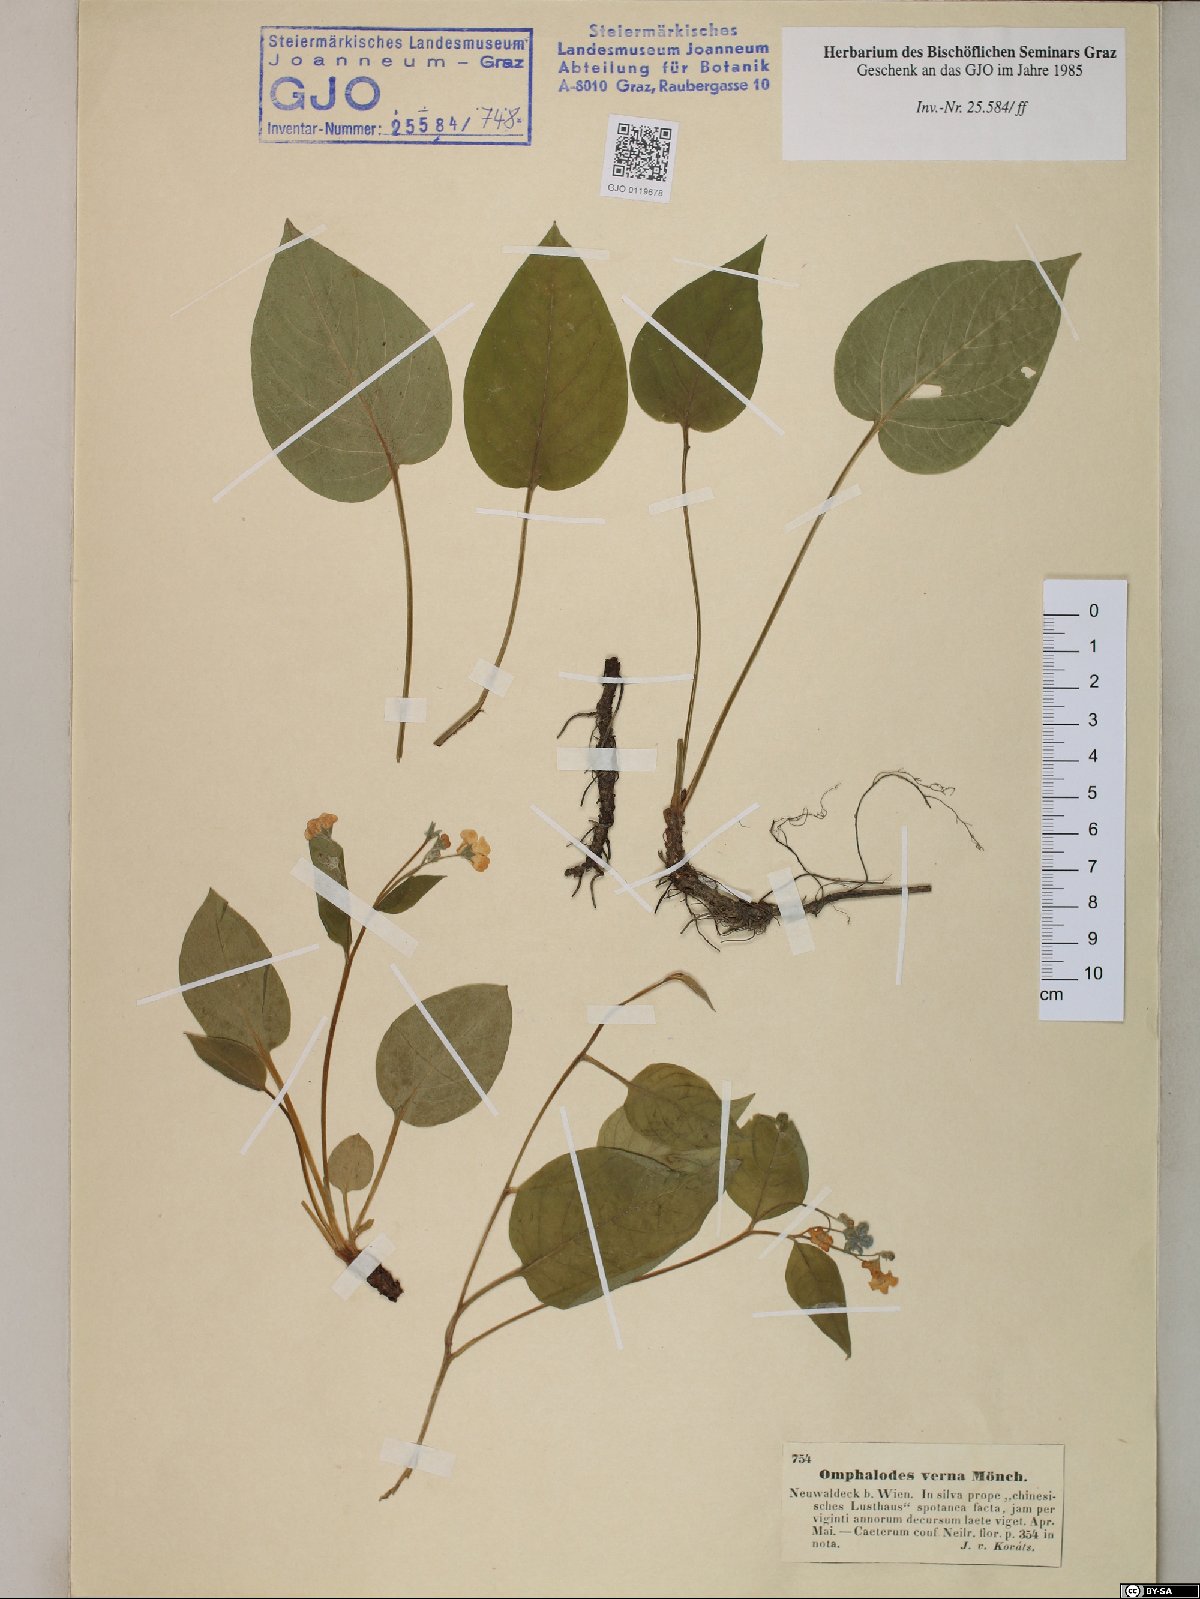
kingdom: Plantae
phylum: Tracheophyta
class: Magnoliopsida
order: Boraginales
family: Boraginaceae
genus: Omphalodes
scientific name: Omphalodes verna
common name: Blue-eyed-mary
